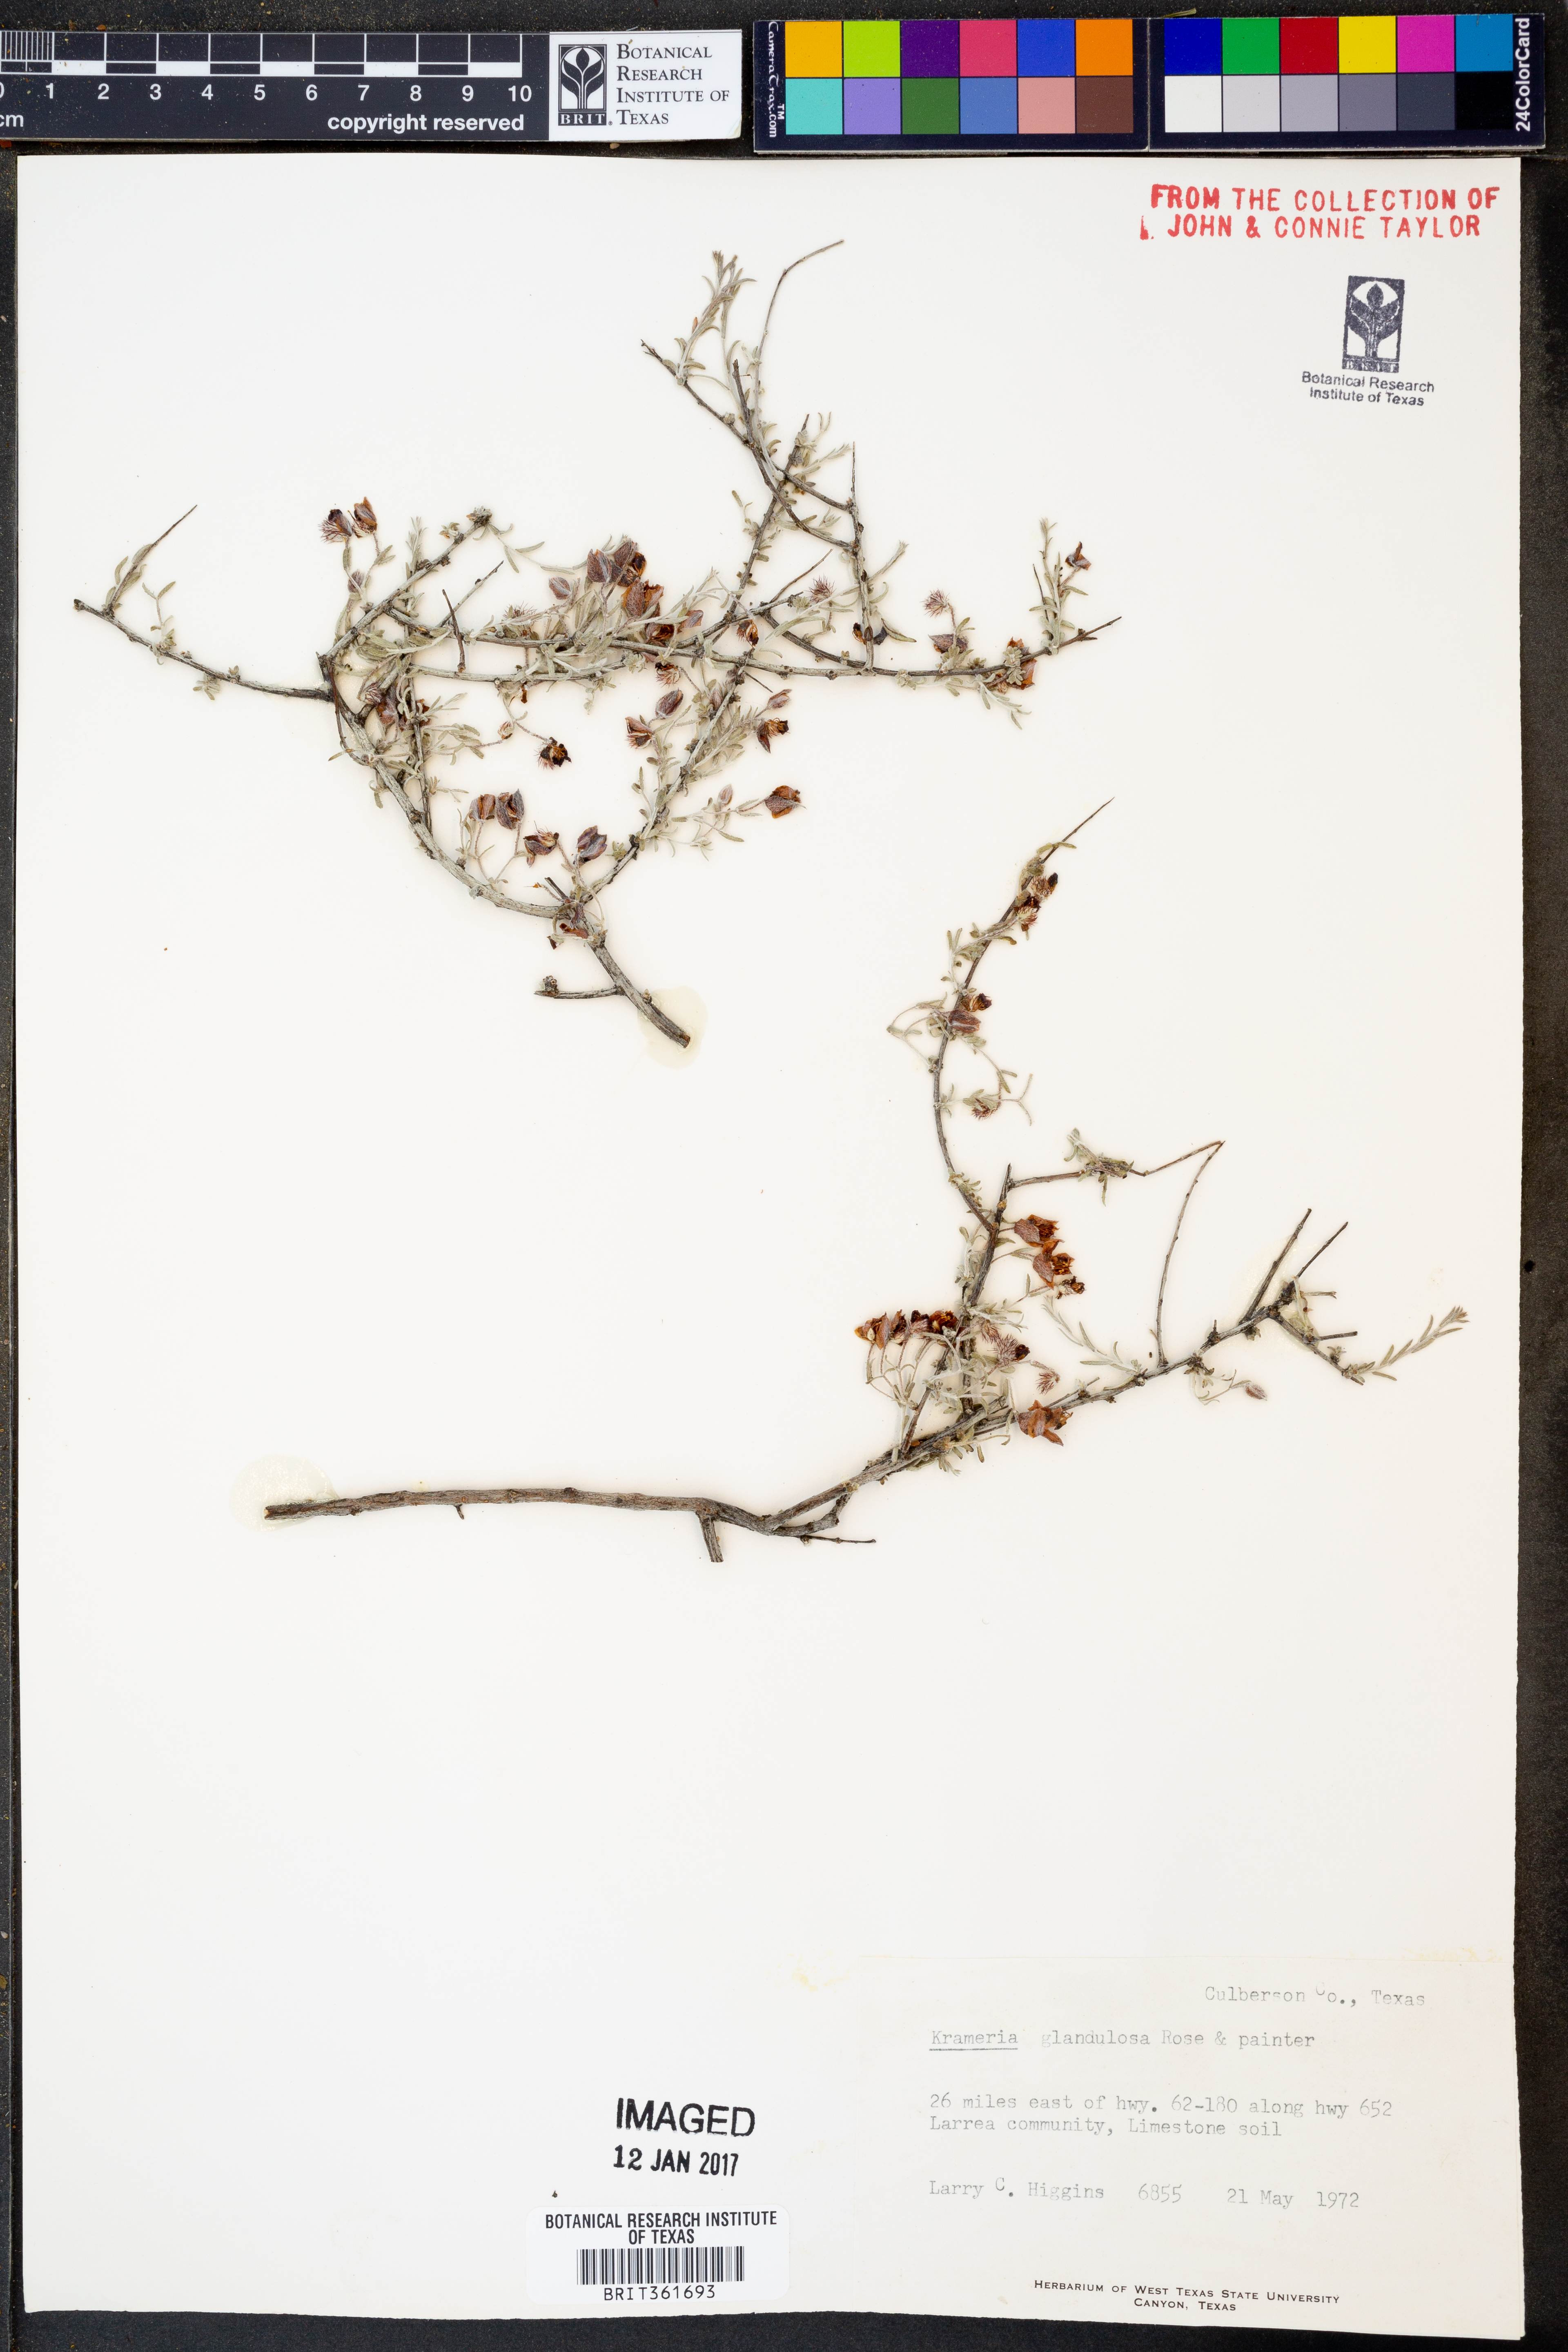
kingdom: Plantae
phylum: Tracheophyta
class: Magnoliopsida
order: Zygophyllales
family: Krameriaceae
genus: Krameria
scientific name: Krameria erecta
